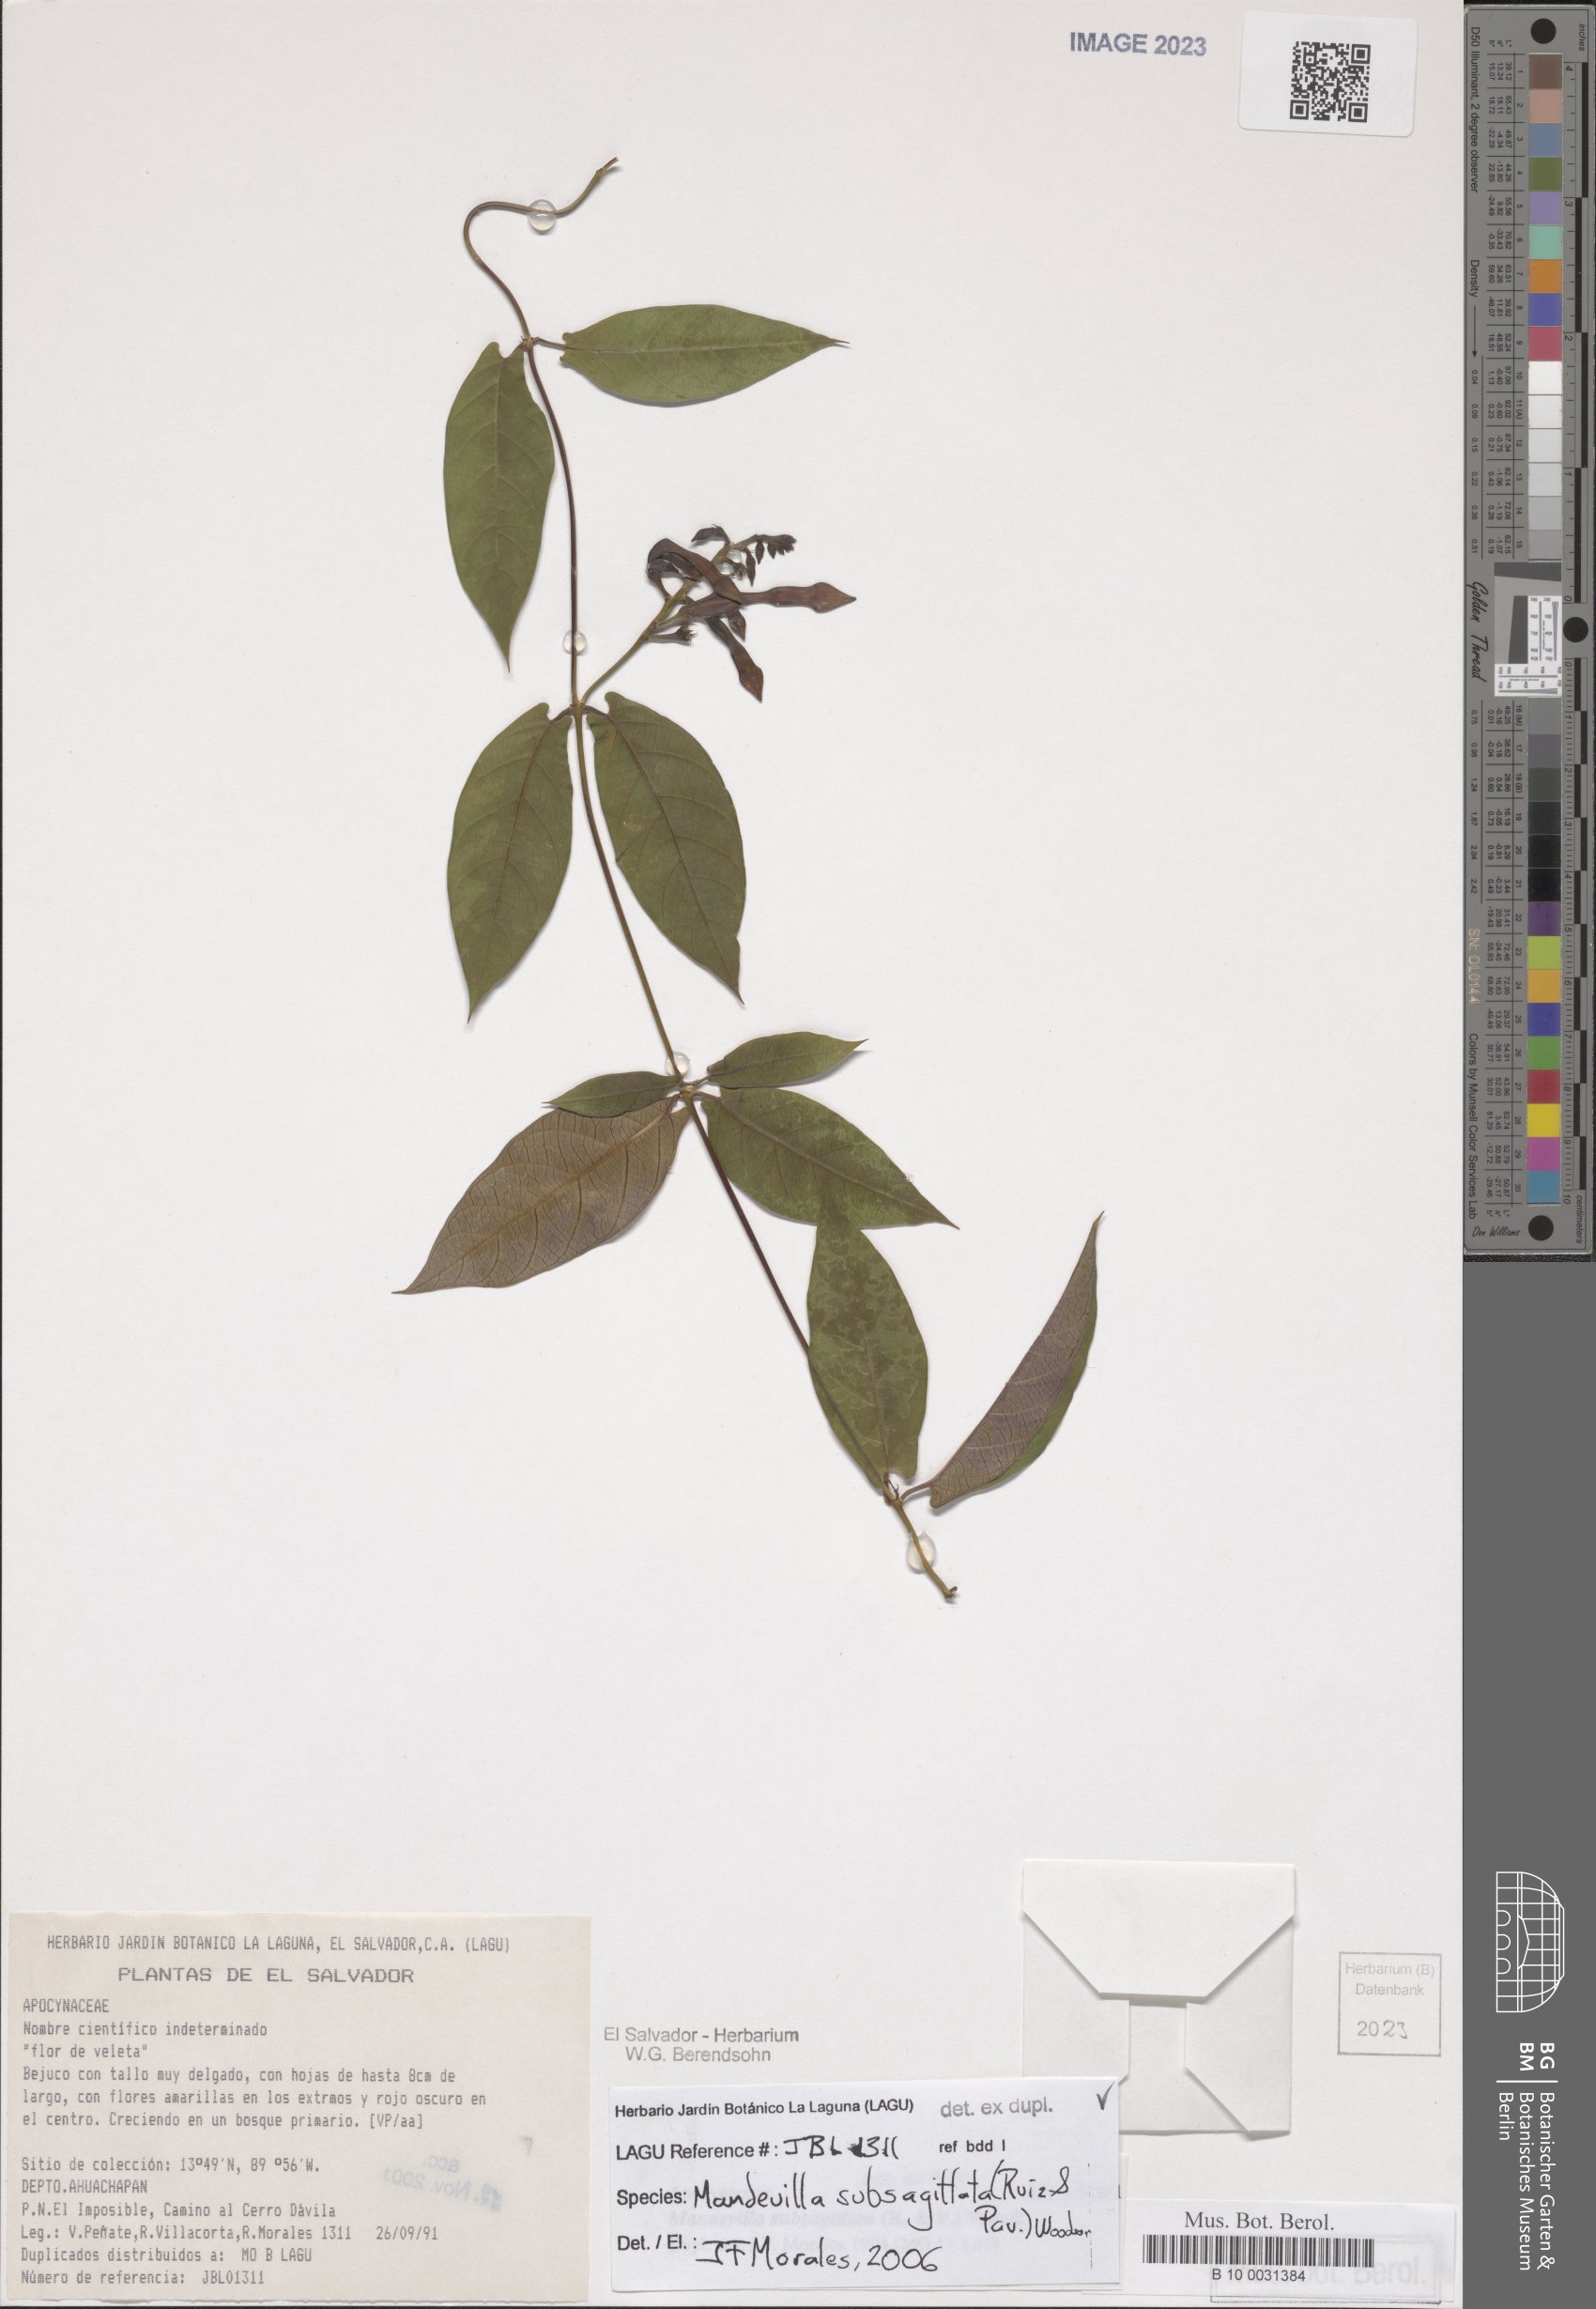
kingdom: Plantae
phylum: Tracheophyta
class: Magnoliopsida
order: Gentianales
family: Apocynaceae
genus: Mandevilla
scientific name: Mandevilla subsagittata
